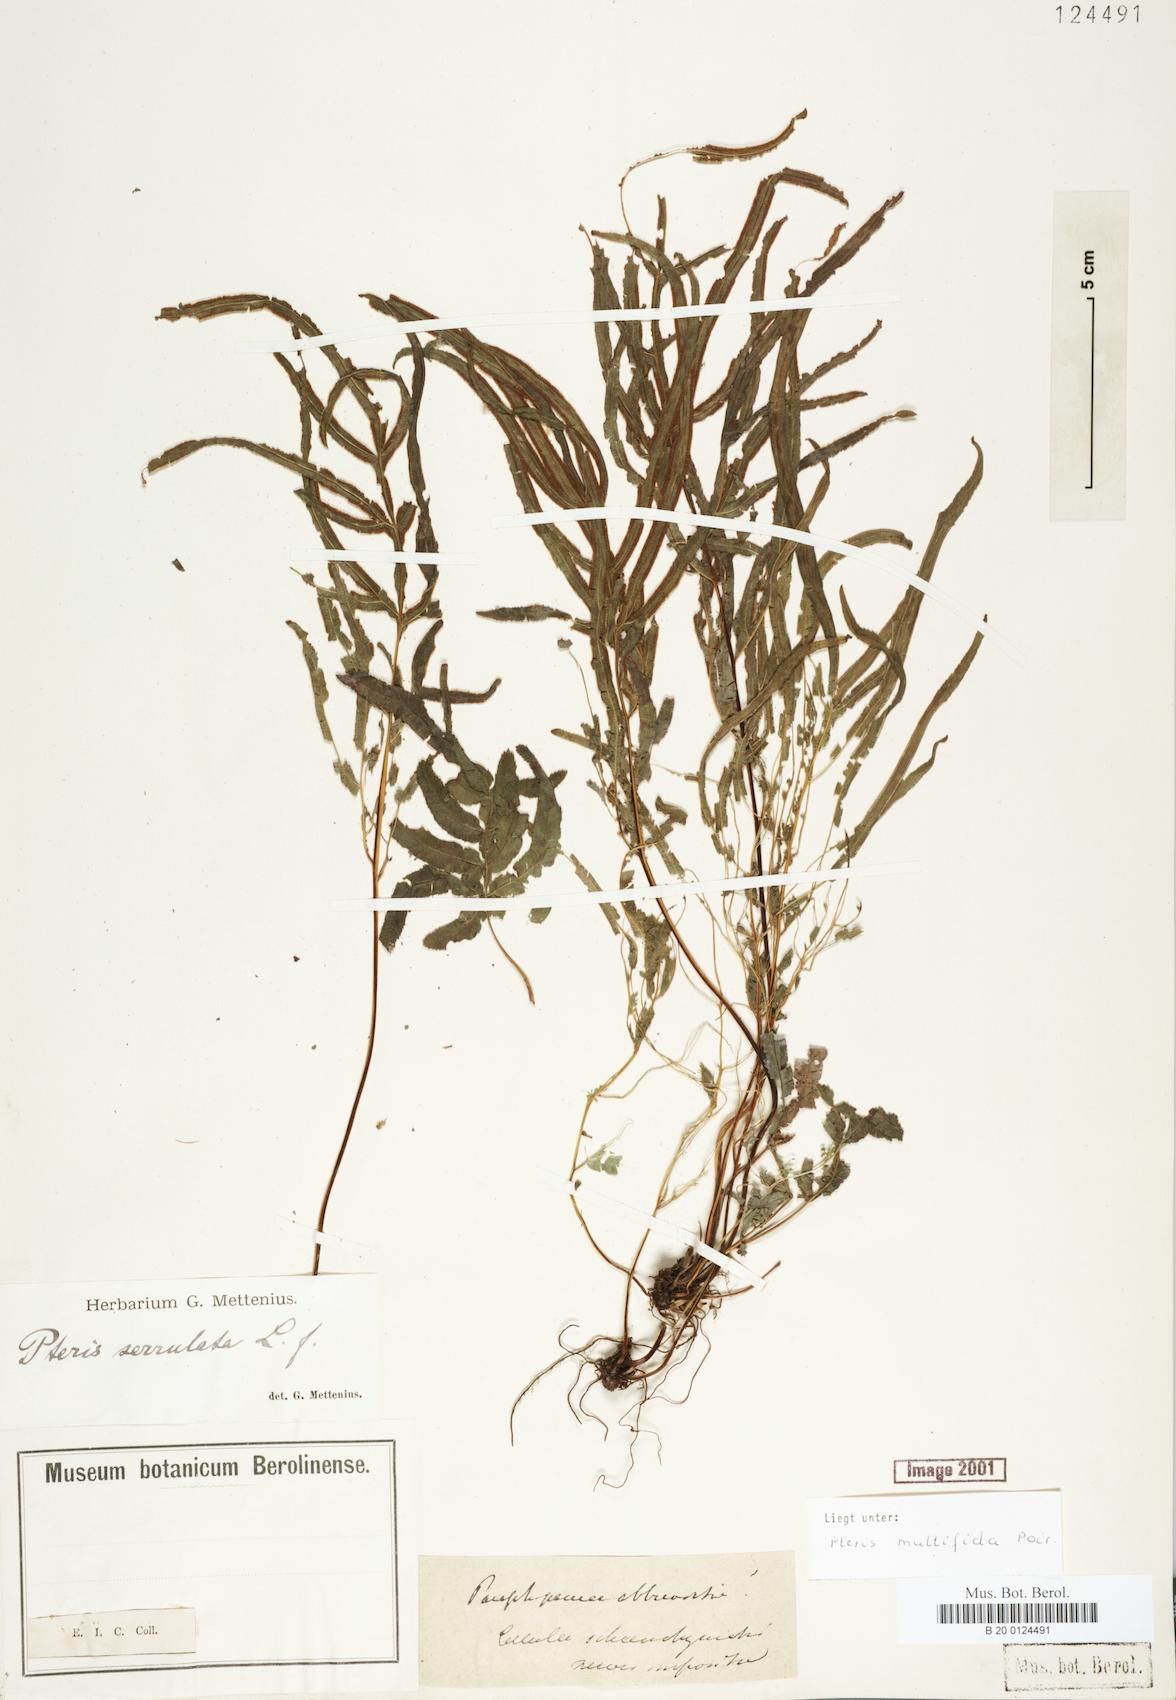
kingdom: Plantae
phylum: Tracheophyta
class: Polypodiopsida
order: Polypodiales
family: Pteridaceae
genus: Pteris
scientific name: Pteris multifida
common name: Spider brake
